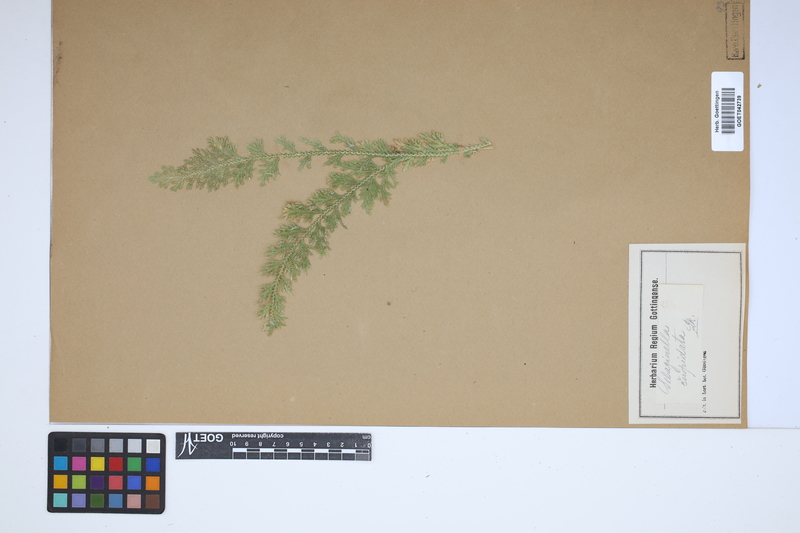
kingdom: Plantae
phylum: Tracheophyta
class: Lycopodiopsida
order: Selaginellales
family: Selaginellaceae
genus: Selaginella
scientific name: Selaginella pallescens
